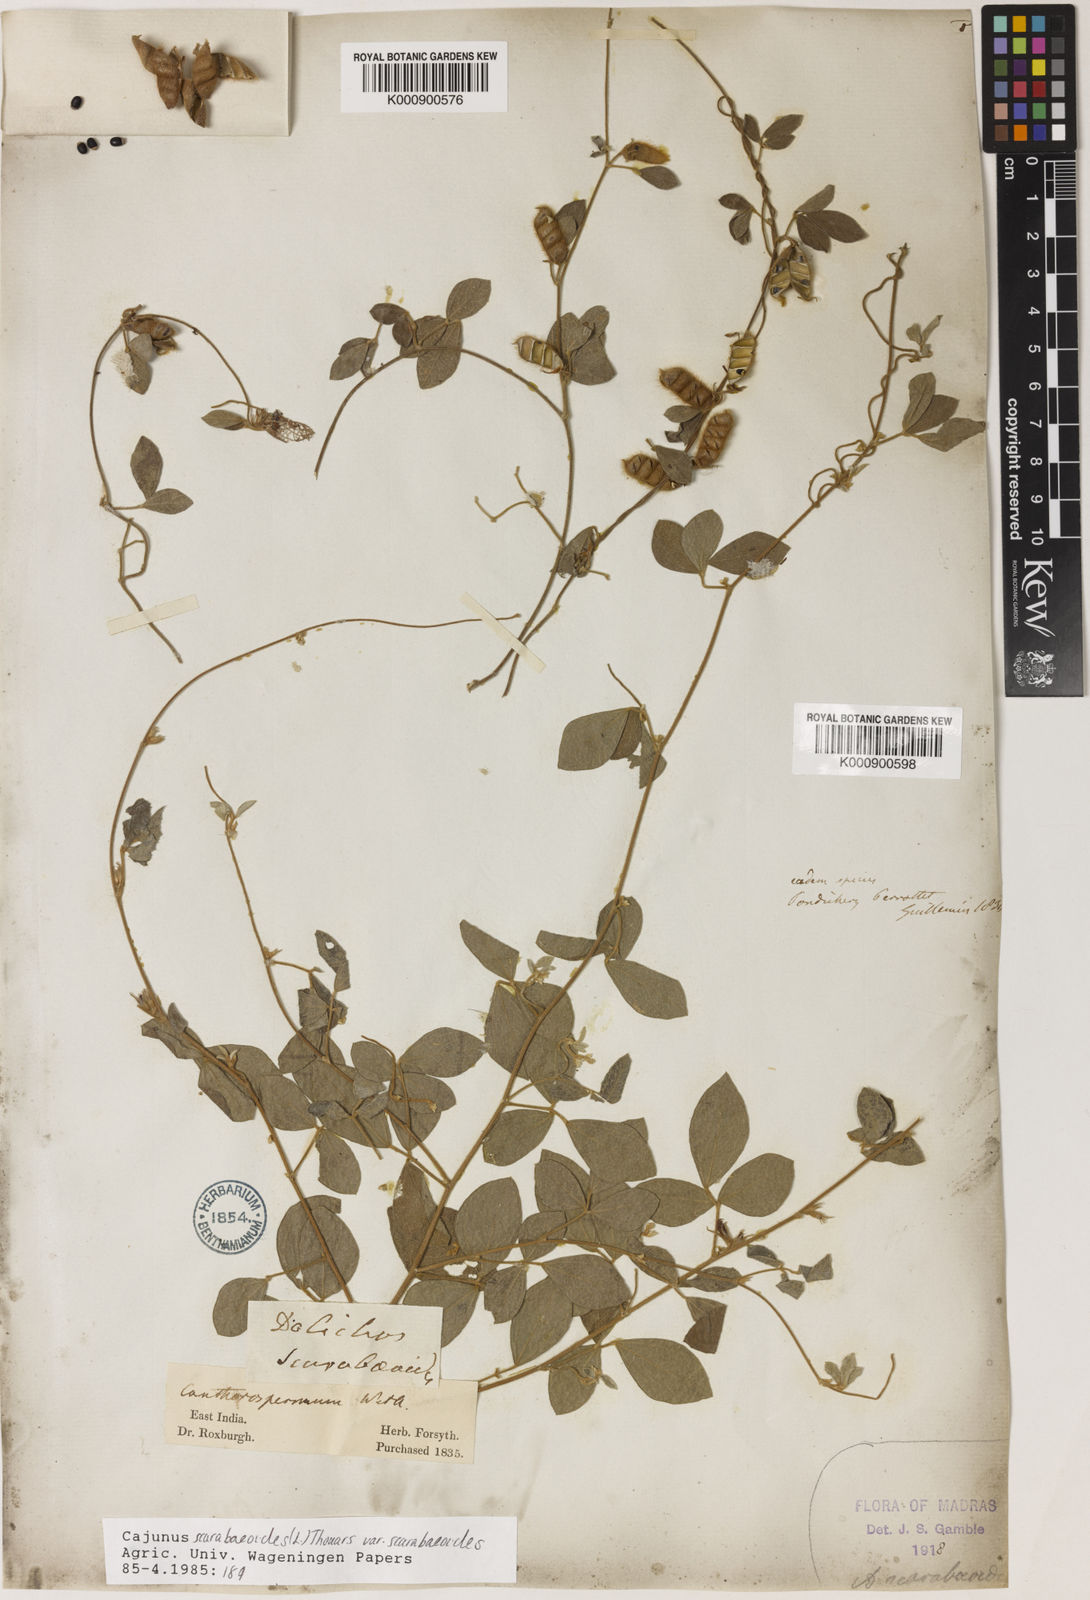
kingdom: Plantae
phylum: Tracheophyta
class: Magnoliopsida
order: Fabales
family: Fabaceae
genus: Cajanus
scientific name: Cajanus scarabaeoides
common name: Showy pigeonpea
